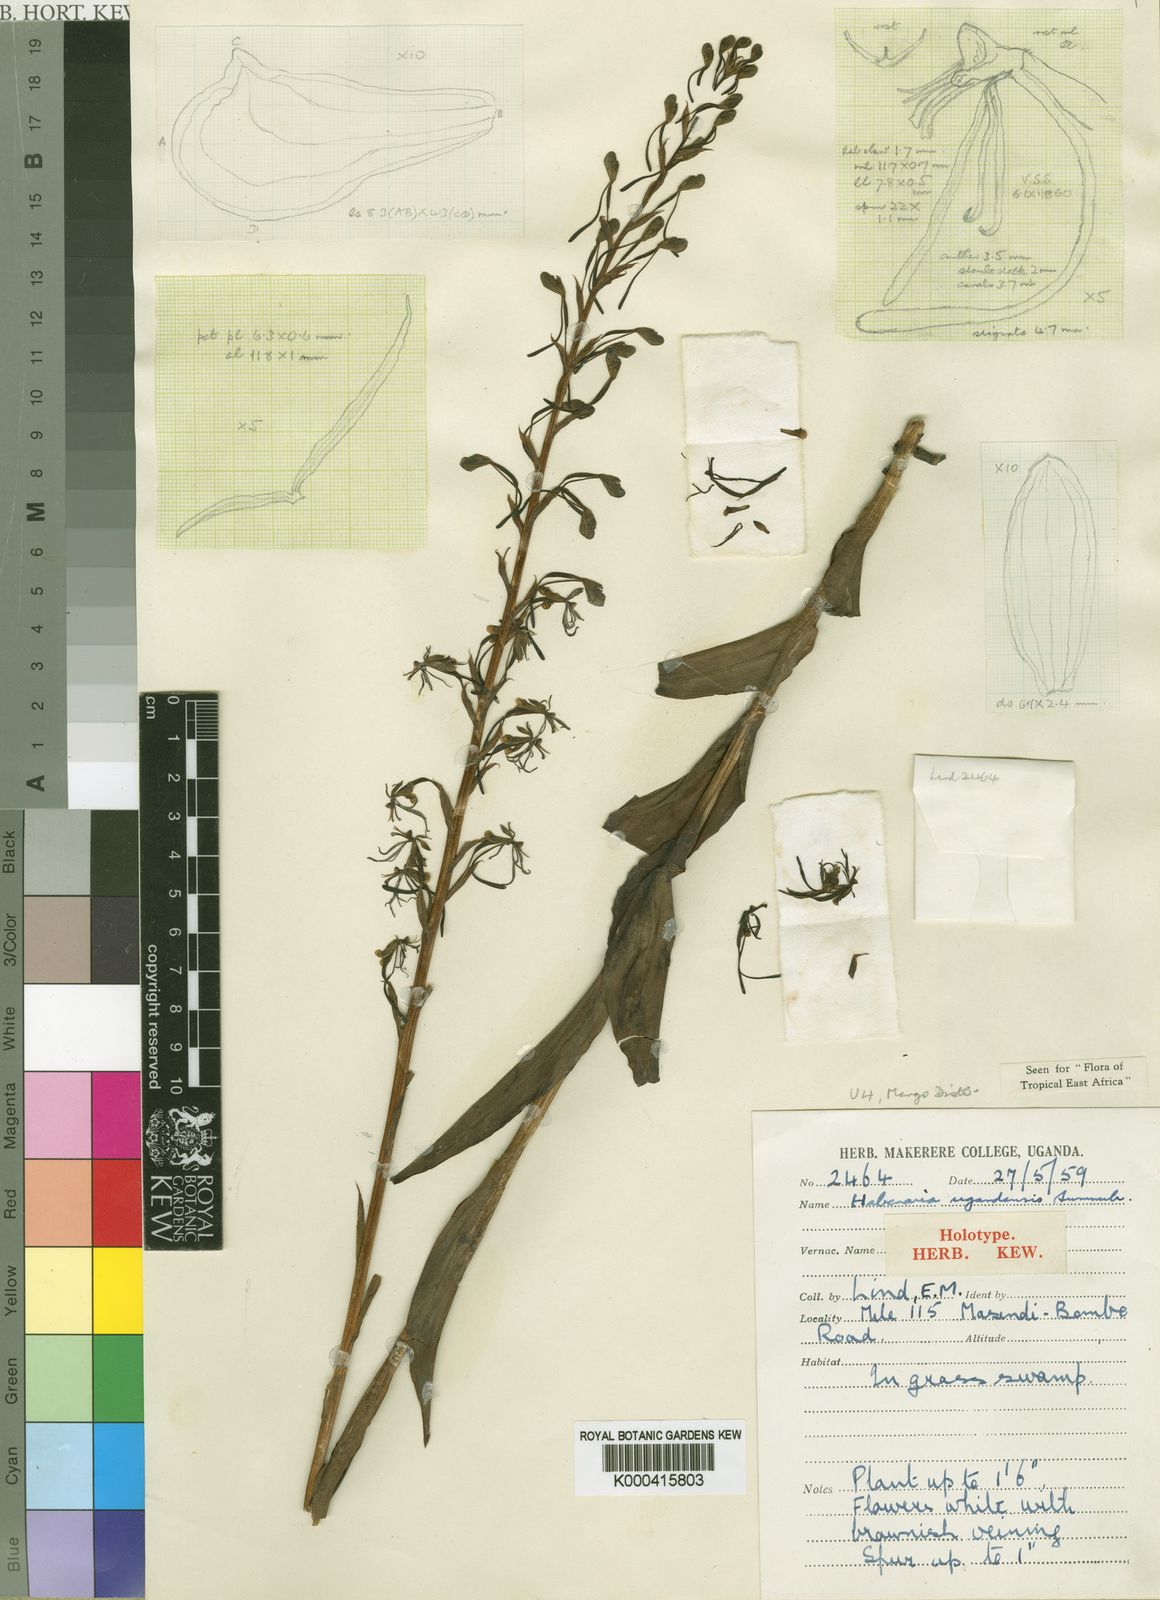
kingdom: Plantae
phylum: Tracheophyta
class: Liliopsida
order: Asparagales
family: Orchidaceae
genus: Habenaria
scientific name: Habenaria ugandensis
